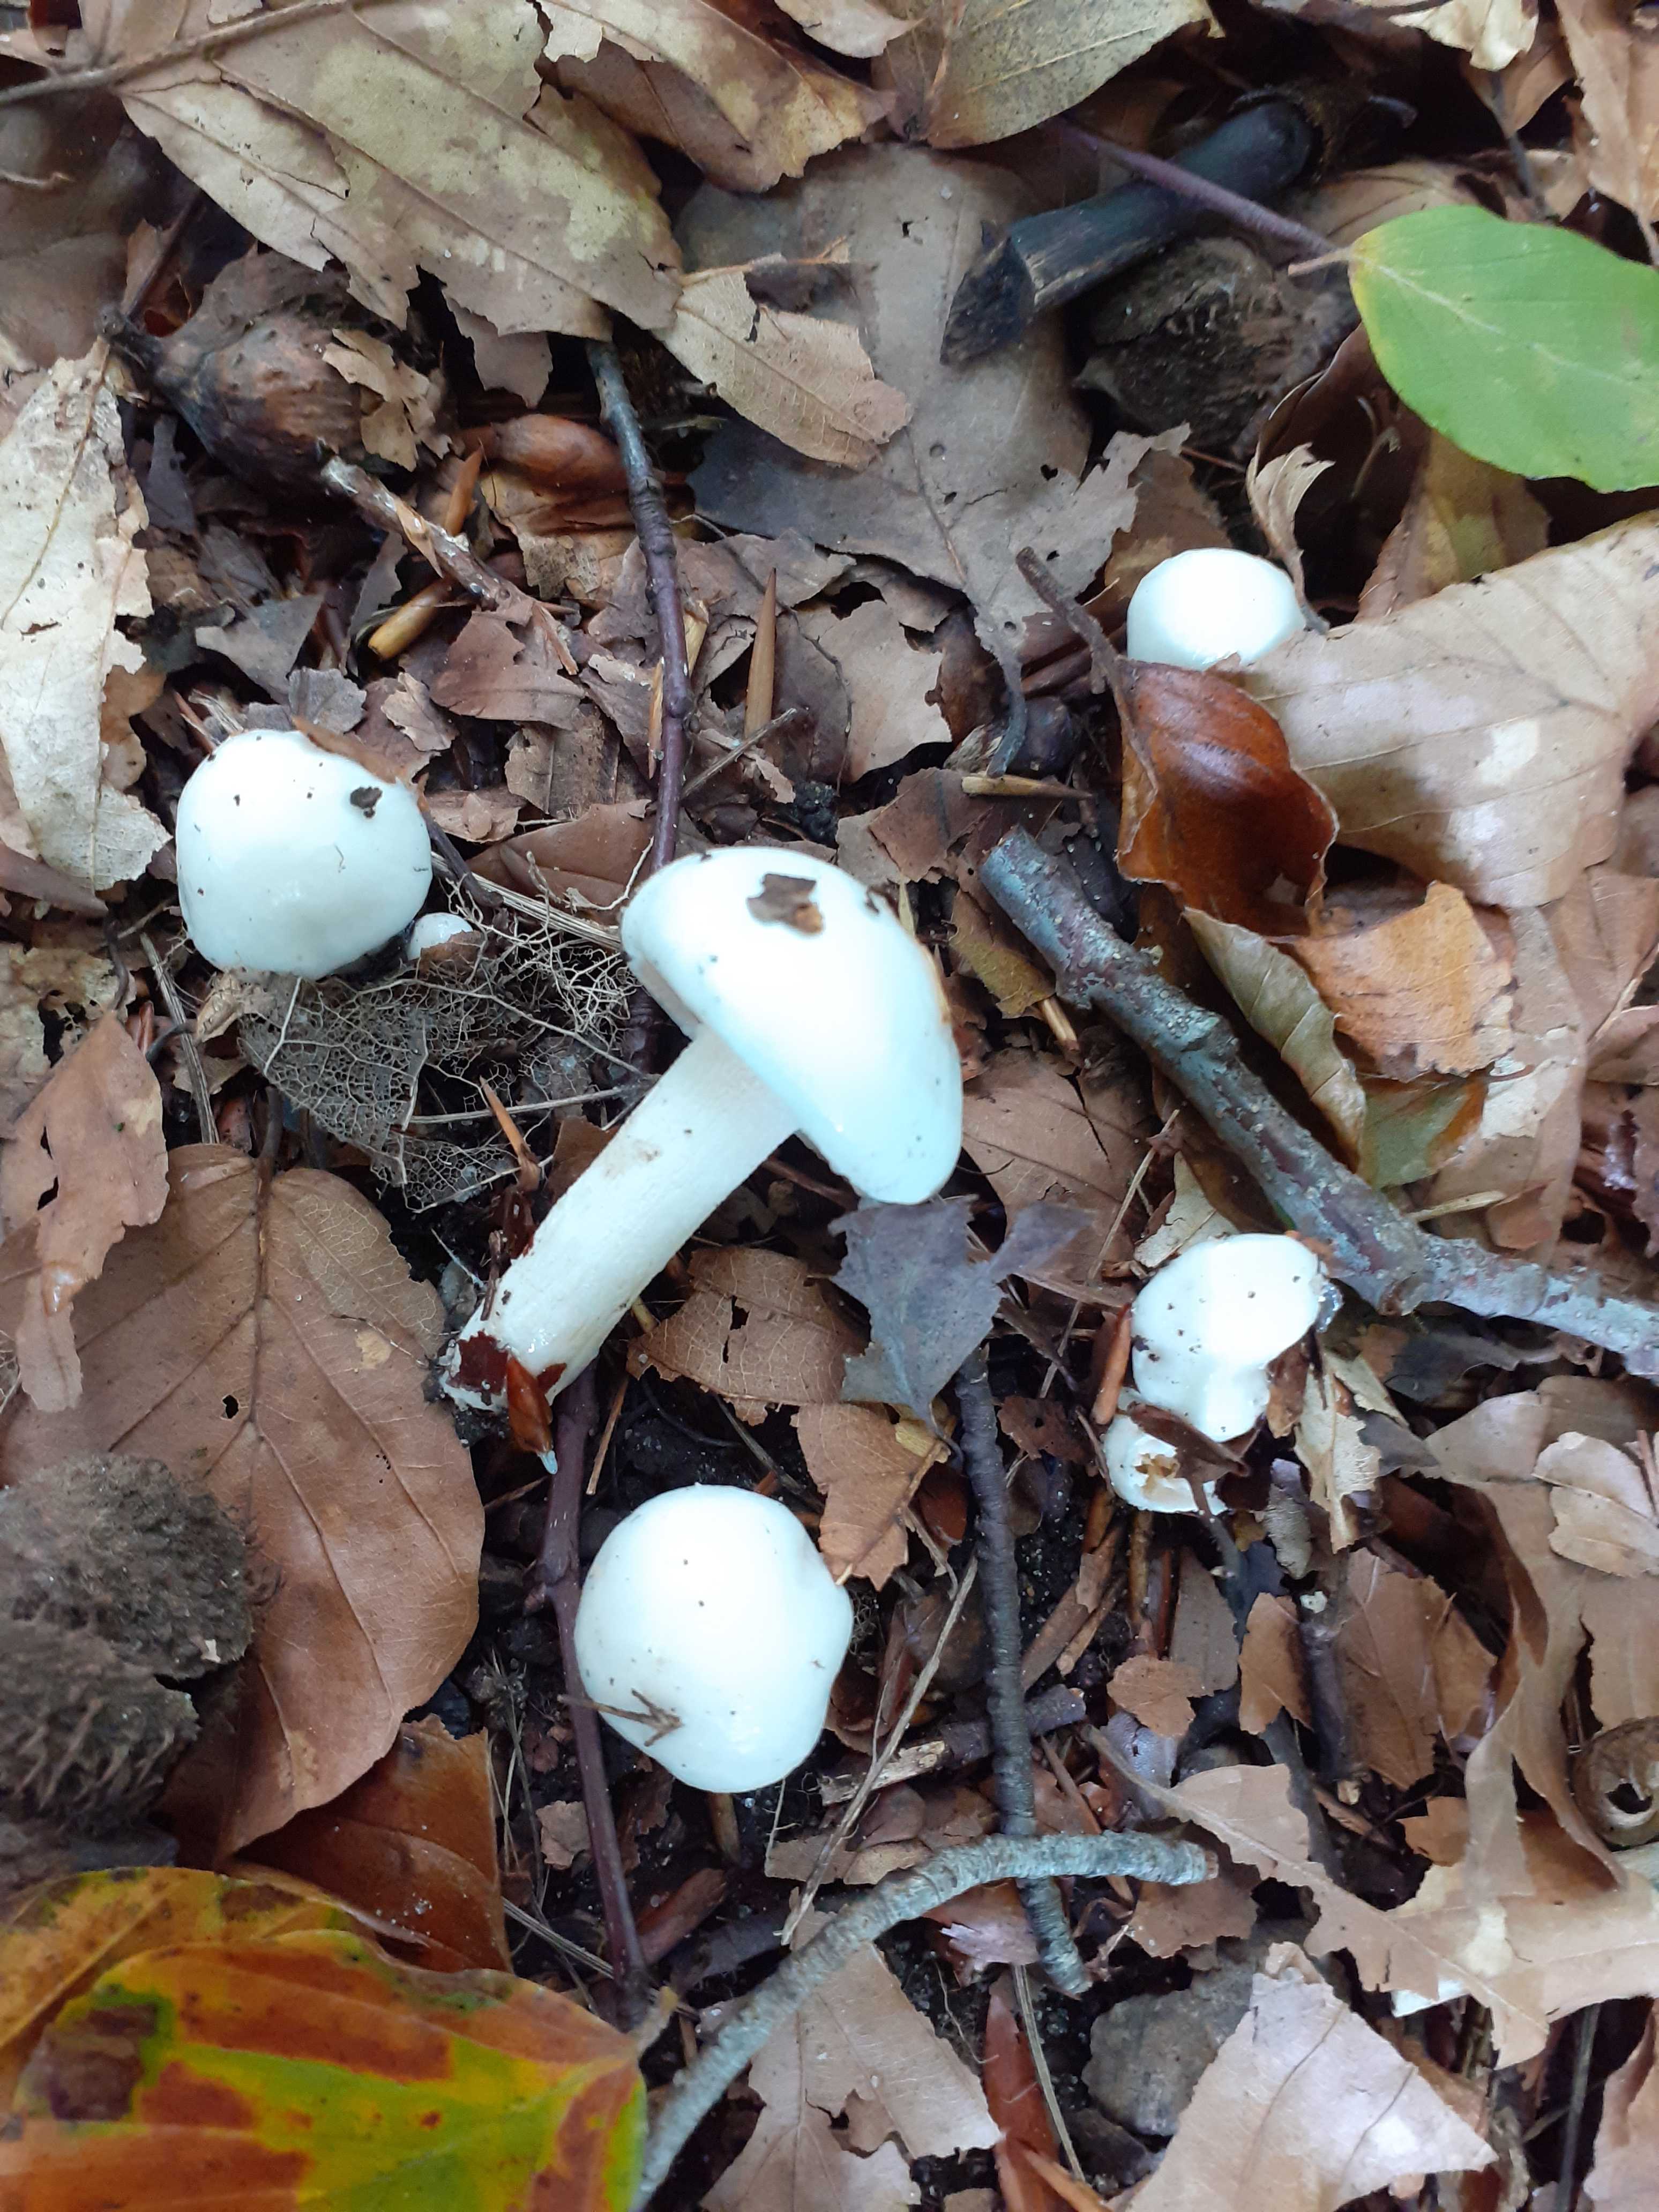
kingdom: Fungi
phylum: Basidiomycota
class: Agaricomycetes
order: Agaricales
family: Hygrophoraceae
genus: Hygrophorus
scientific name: Hygrophorus eburneus
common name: elfenbens-sneglehat
